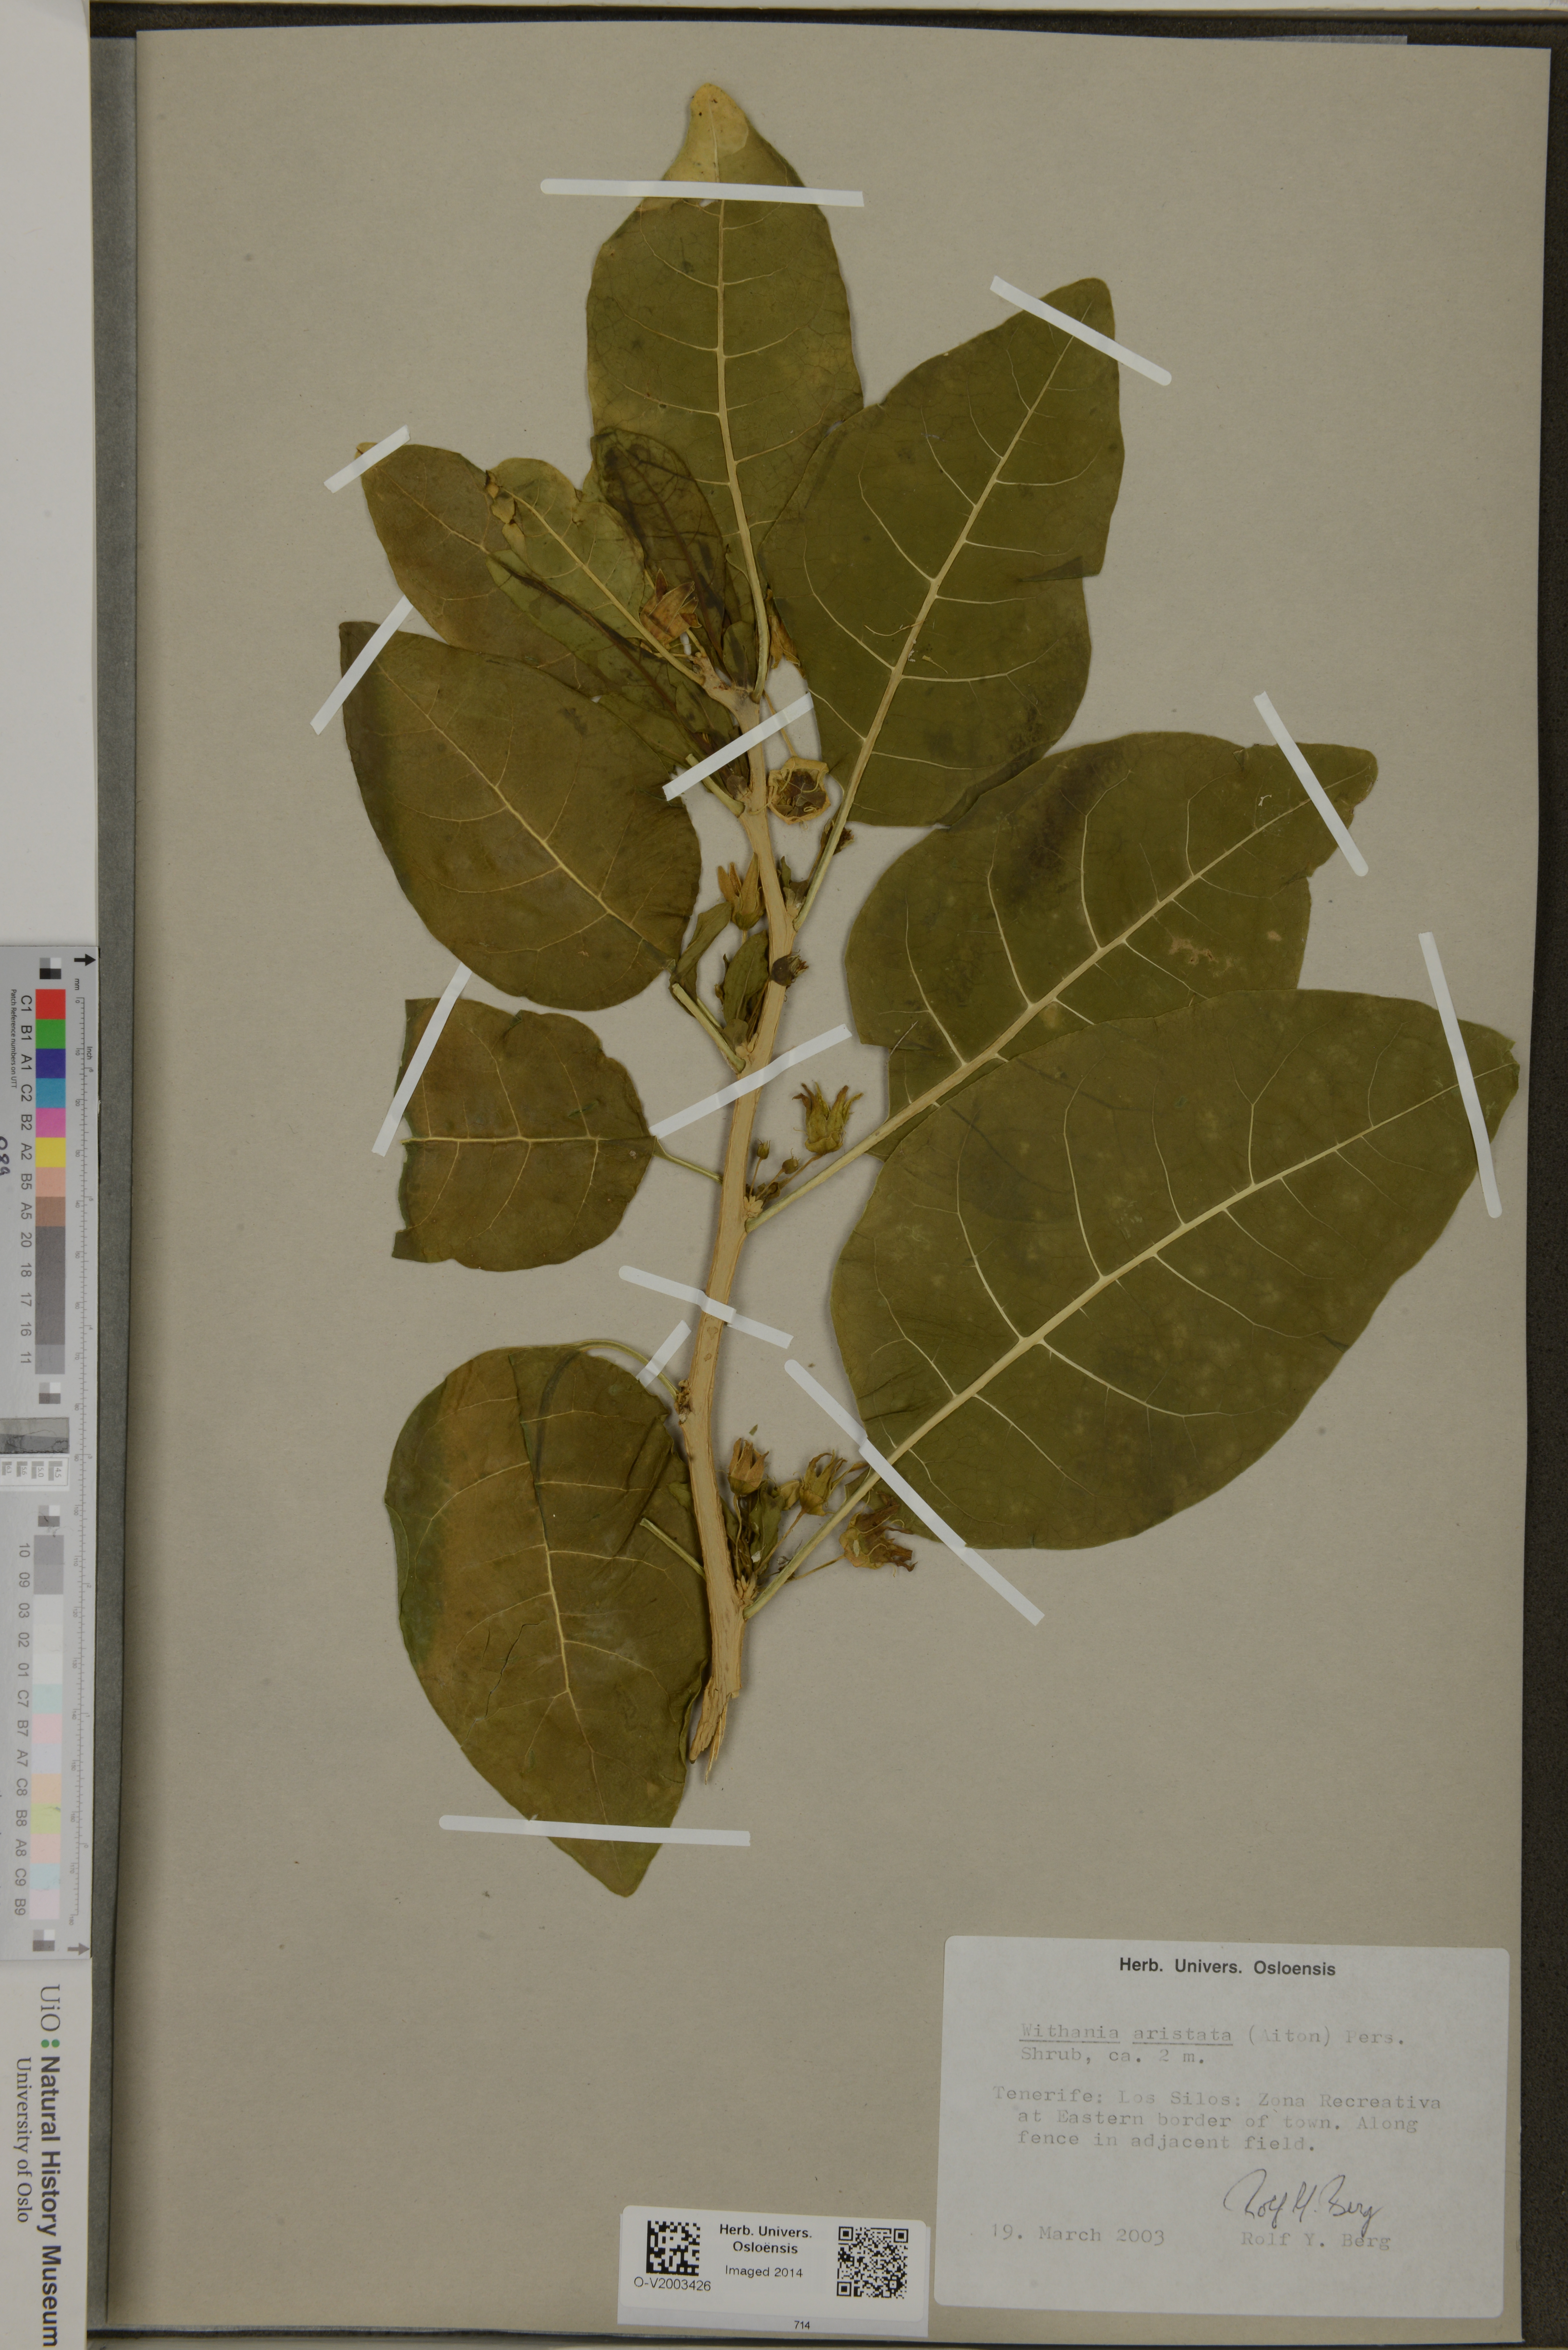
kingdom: Plantae
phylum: Tracheophyta
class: Magnoliopsida
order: Solanales
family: Solanaceae
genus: Withania
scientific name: Withania aristata
